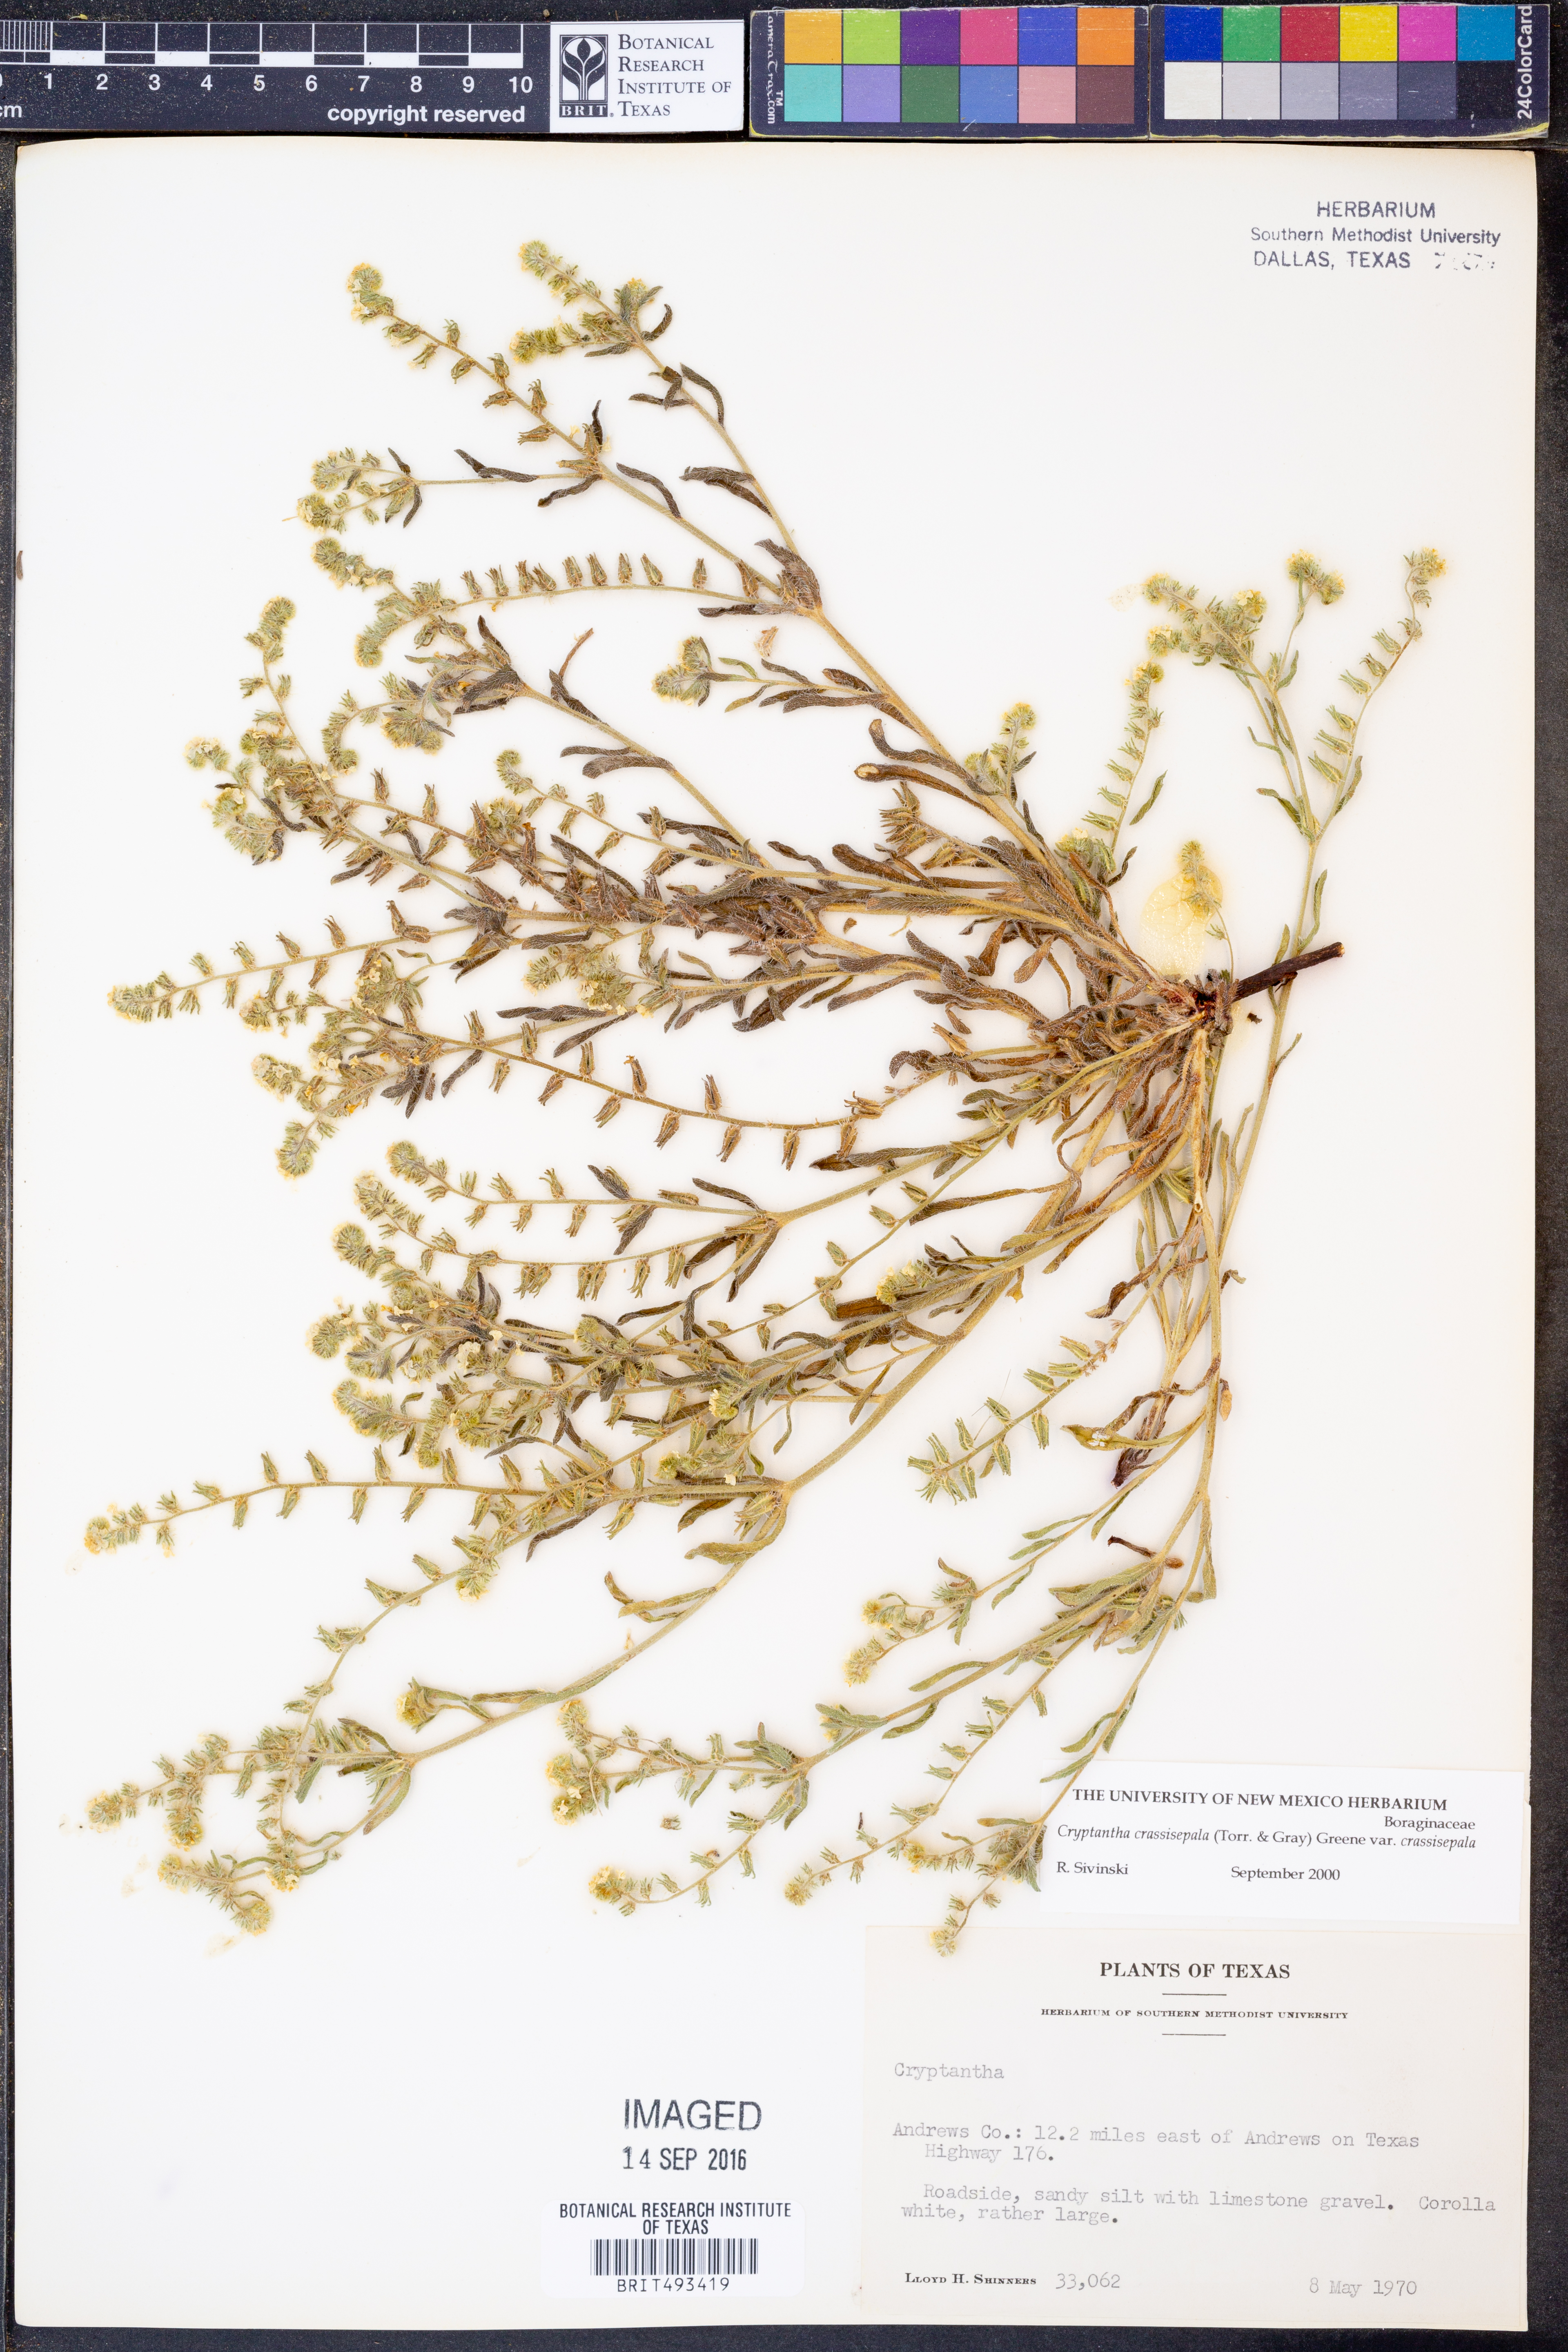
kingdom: Plantae
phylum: Tracheophyta
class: Magnoliopsida
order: Boraginales
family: Boraginaceae
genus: Cryptantha
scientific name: Cryptantha crassisepala
